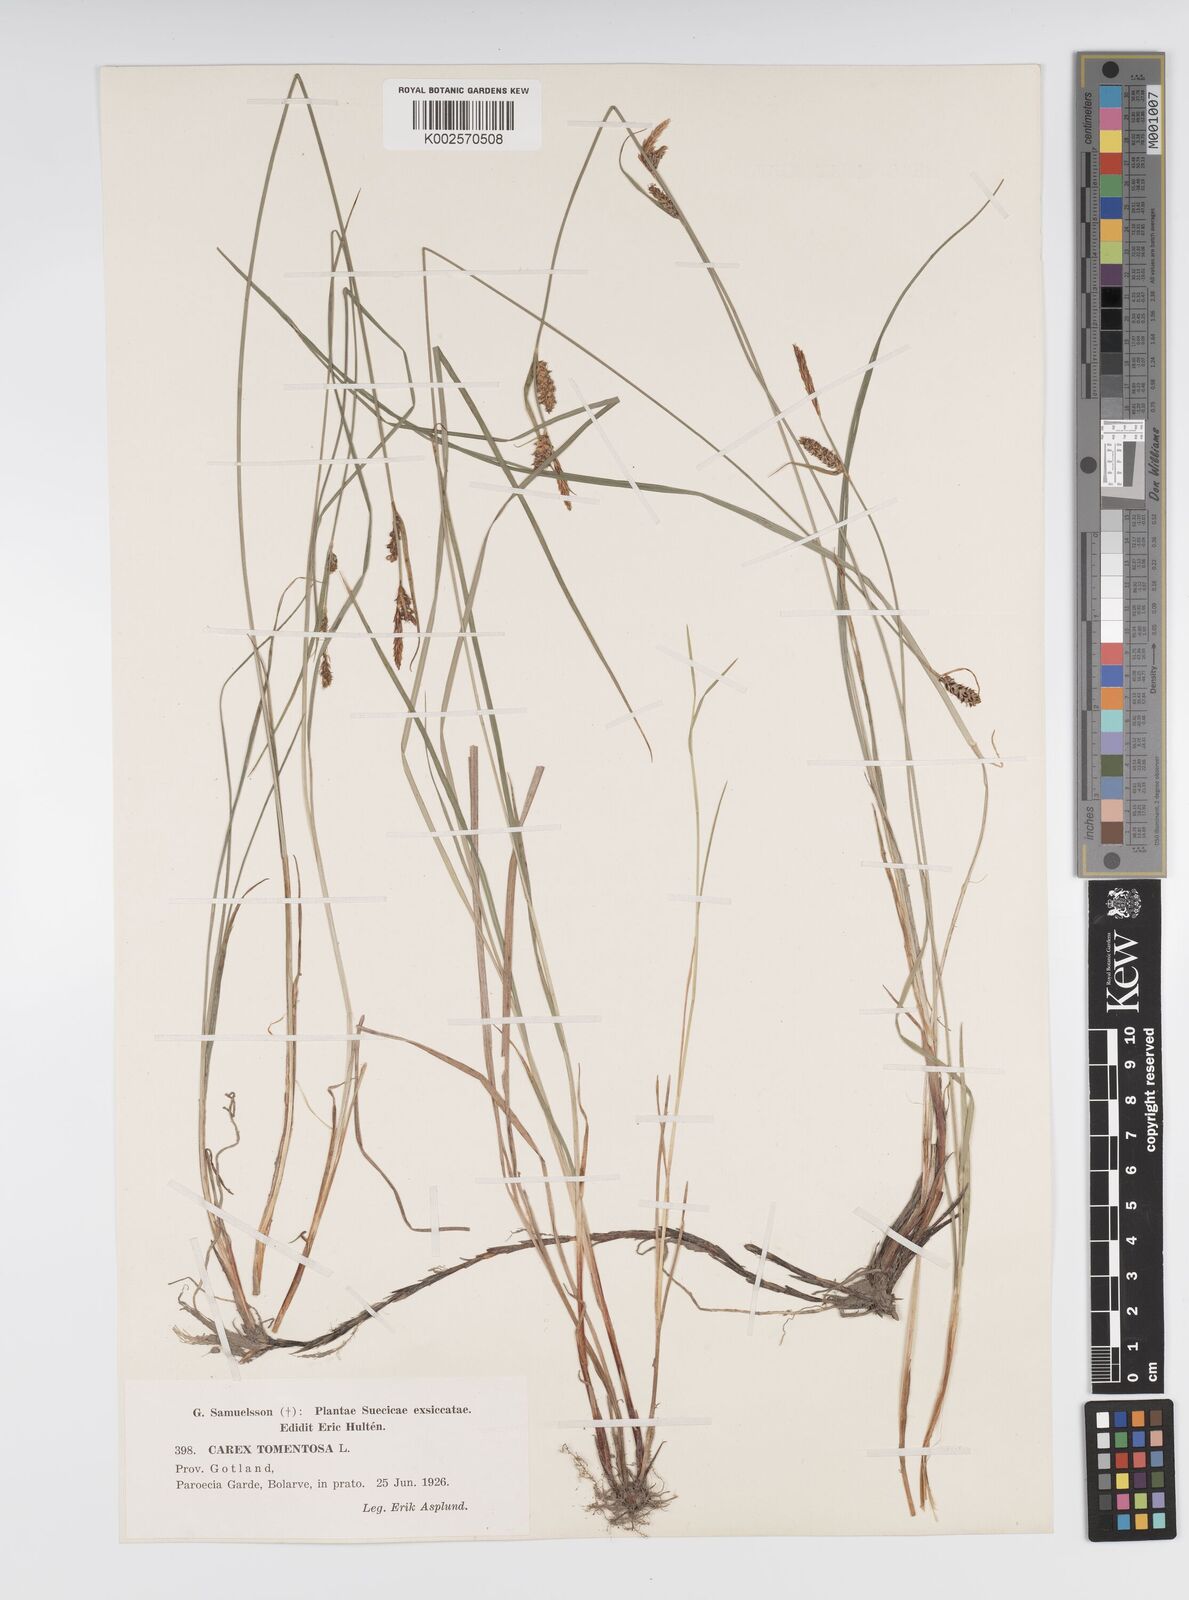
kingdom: Plantae
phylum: Tracheophyta
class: Liliopsida
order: Poales
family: Cyperaceae
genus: Carex
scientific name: Carex montana
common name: Soft-leaved sedge
